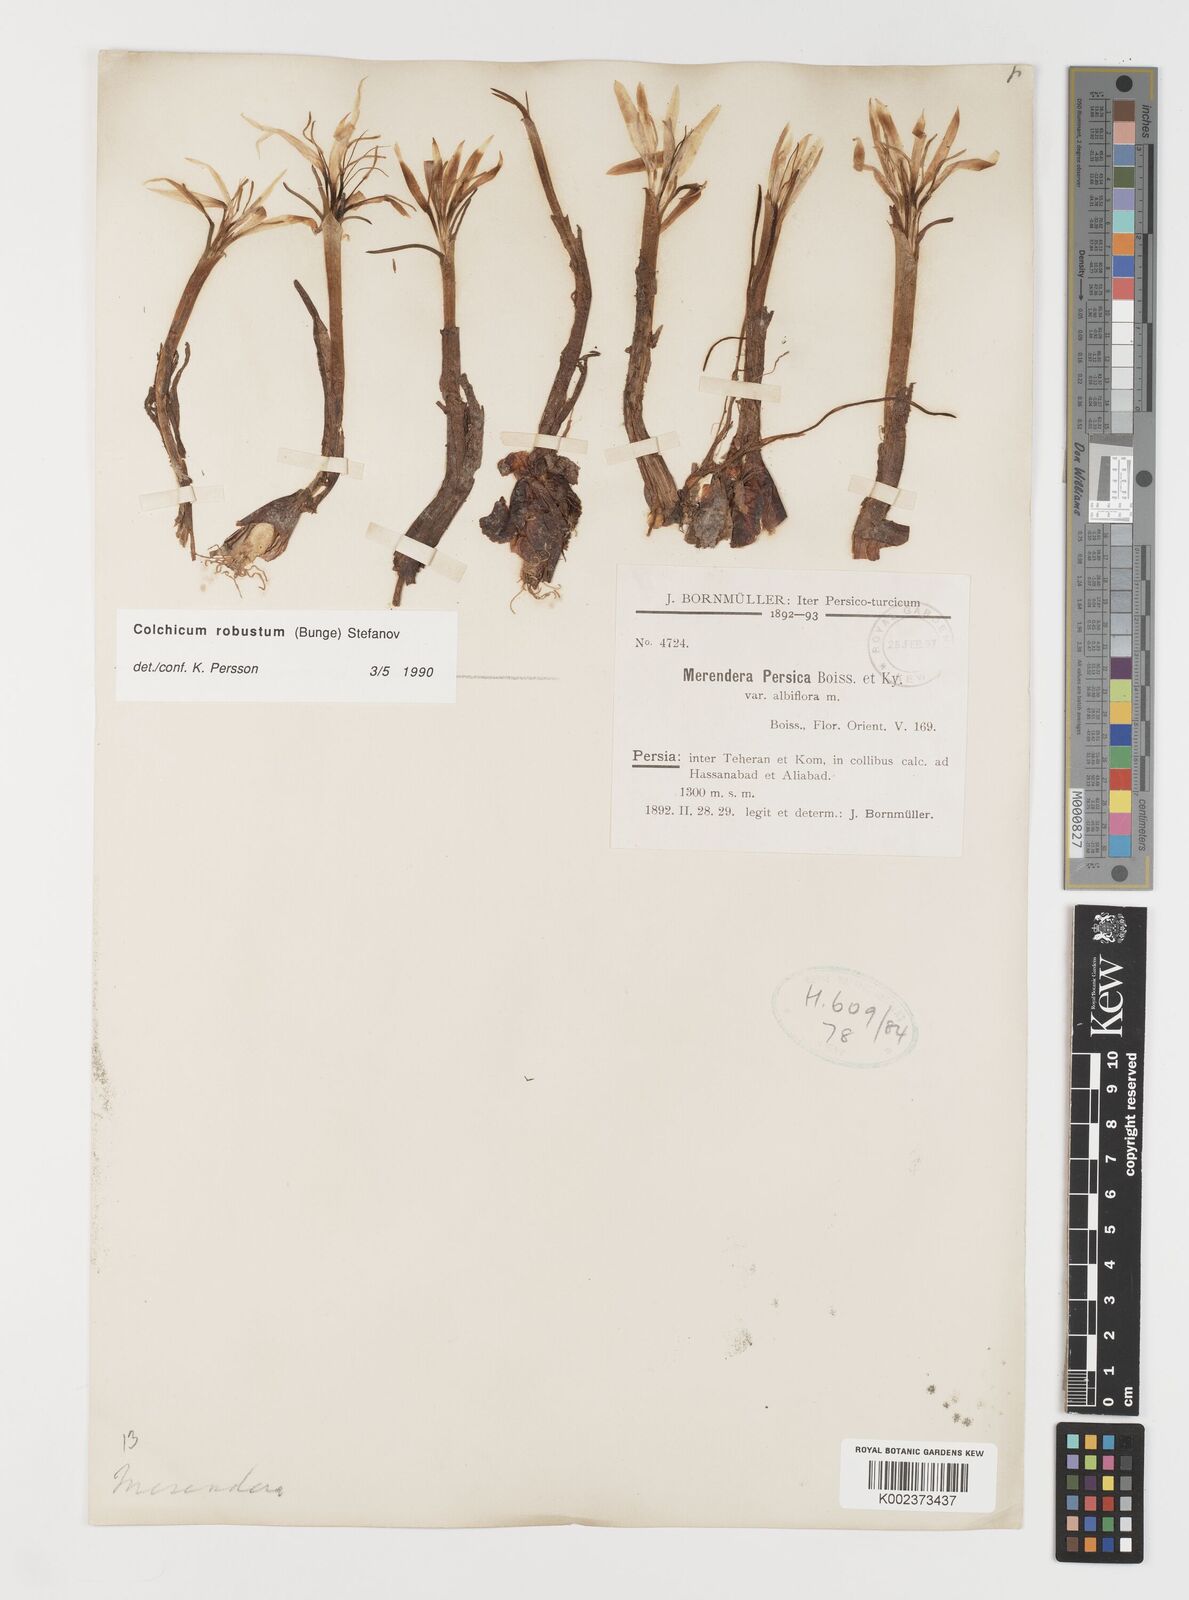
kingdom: Plantae
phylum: Tracheophyta
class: Liliopsida
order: Liliales
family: Colchicaceae
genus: Colchicum
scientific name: Colchicum robustum
